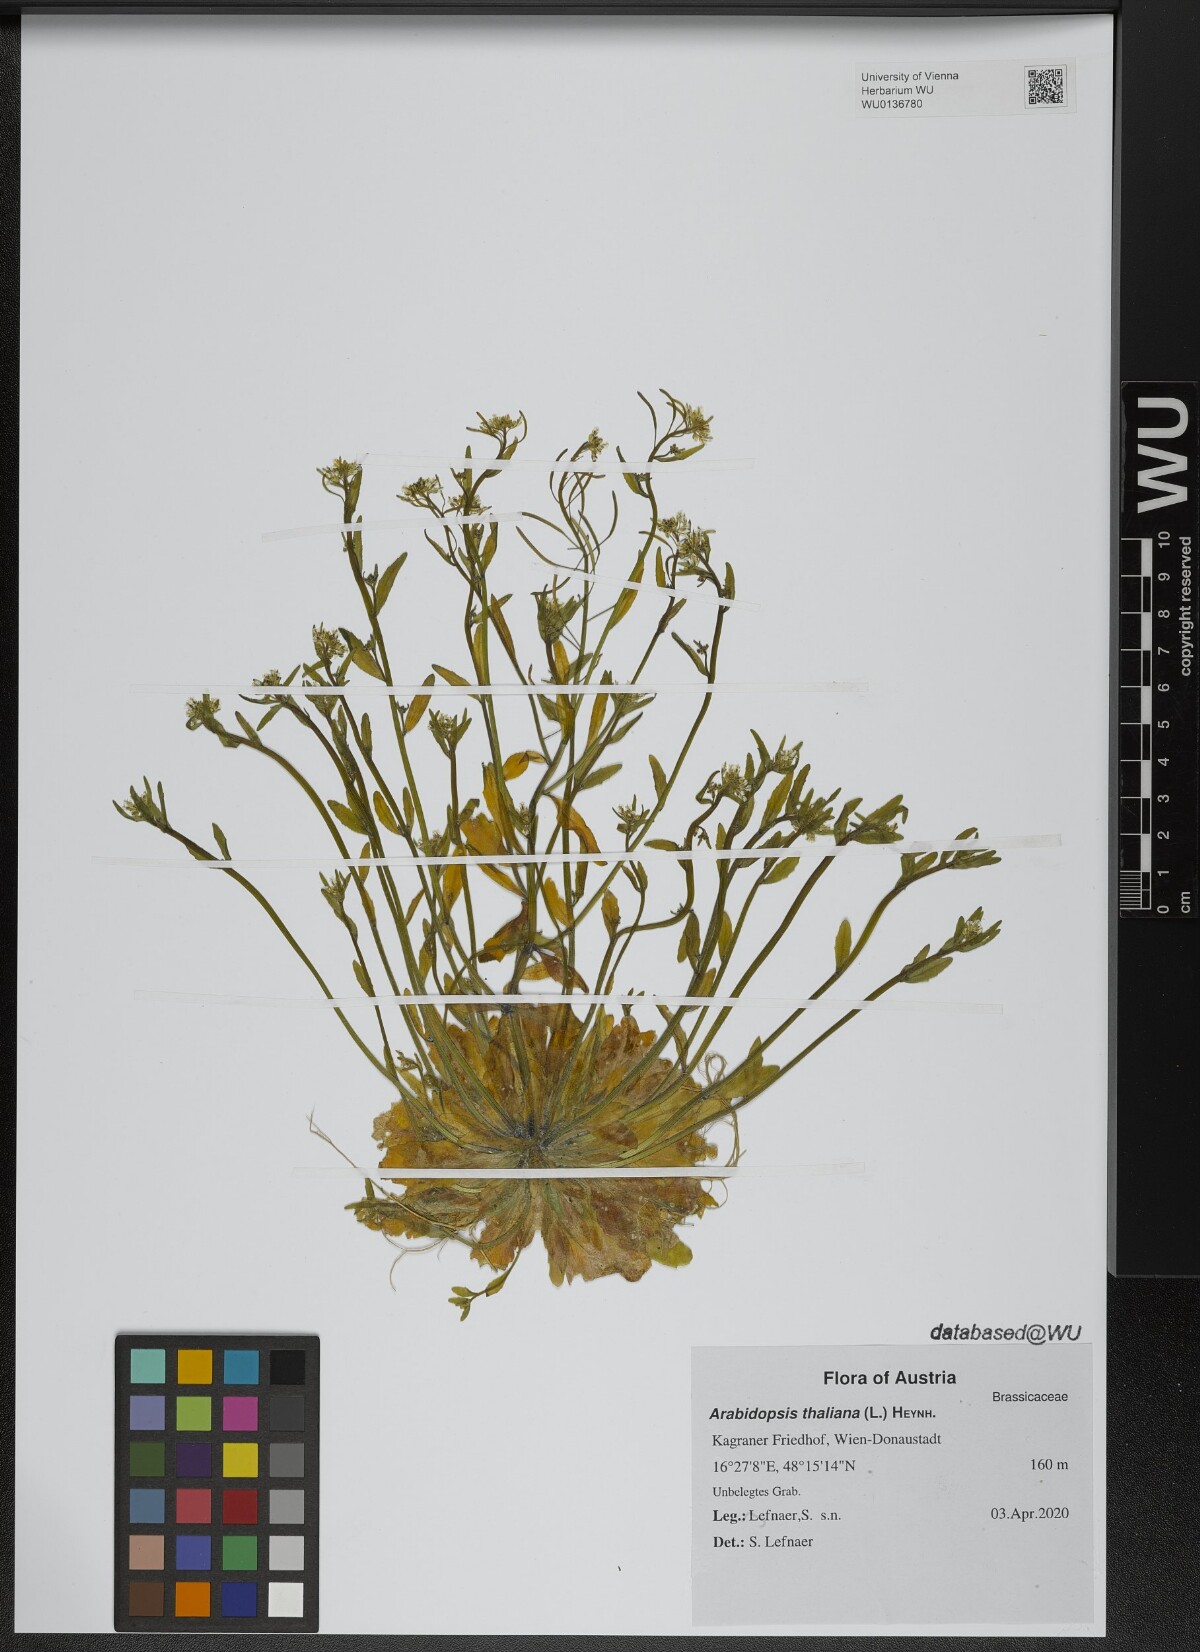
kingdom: Plantae
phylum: Tracheophyta
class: Magnoliopsida
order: Brassicales
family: Brassicaceae
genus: Arabidopsis
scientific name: Arabidopsis thaliana
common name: Thale cress
